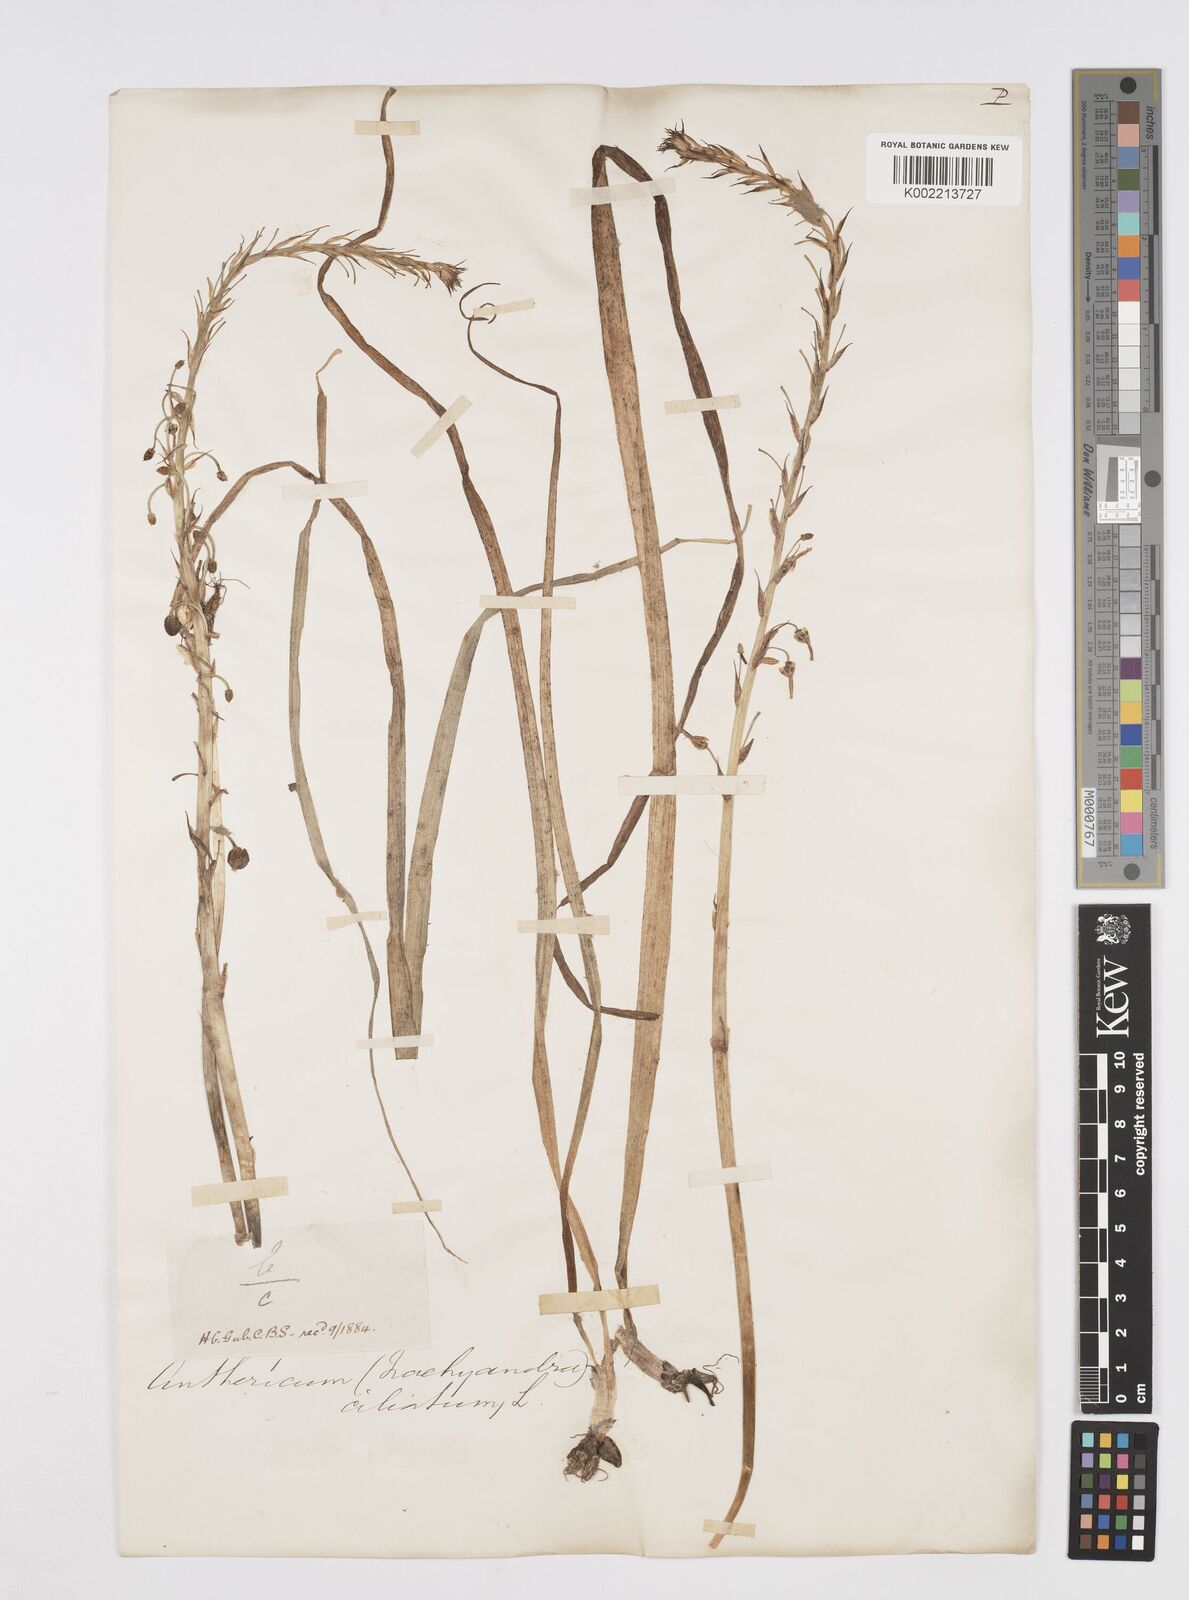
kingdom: Plantae
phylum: Tracheophyta
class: Liliopsida
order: Asparagales
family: Asphodelaceae
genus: Trachyandra
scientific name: Trachyandra ciliata
